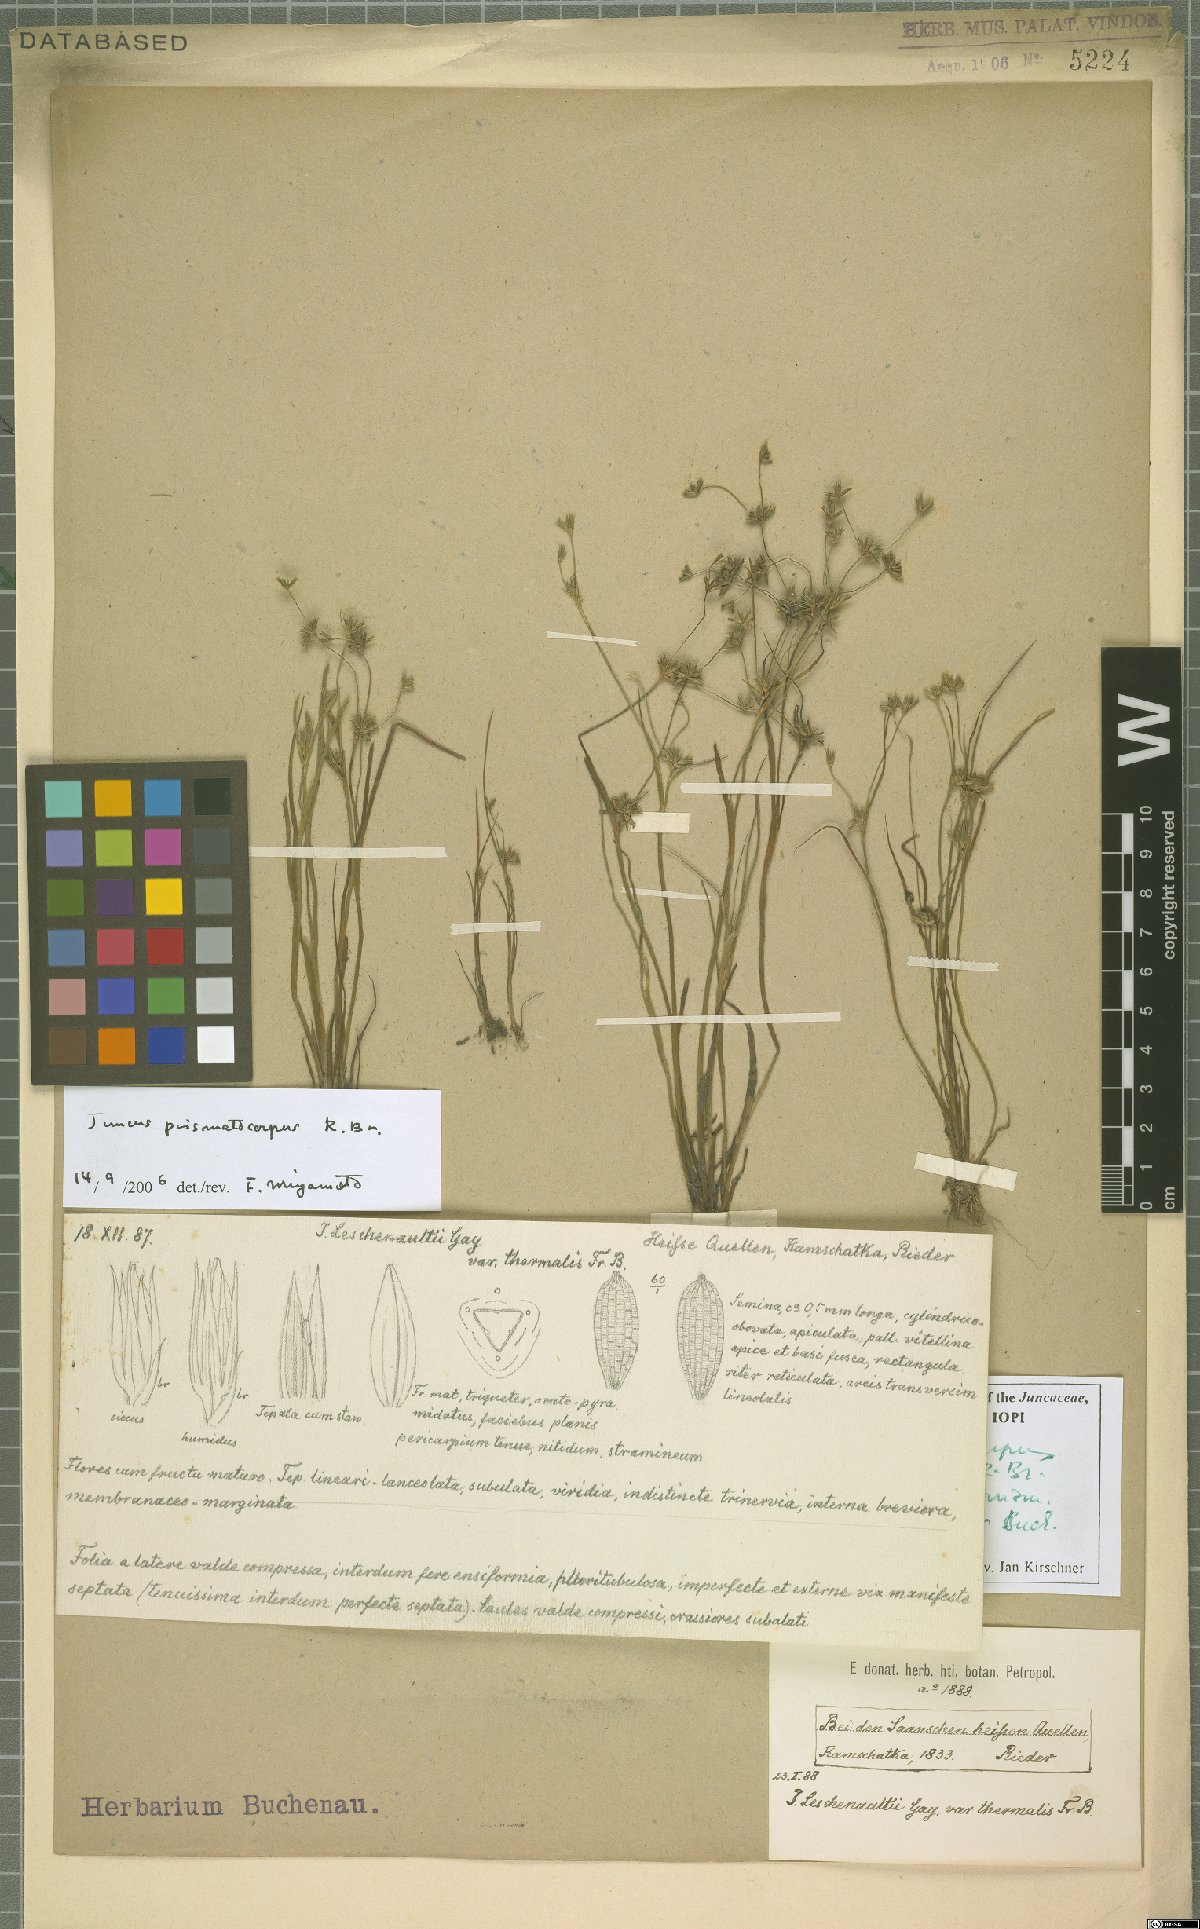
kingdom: Plantae
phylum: Tracheophyta
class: Liliopsida
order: Poales
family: Juncaceae
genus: Juncus
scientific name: Juncus prismatocarpus
